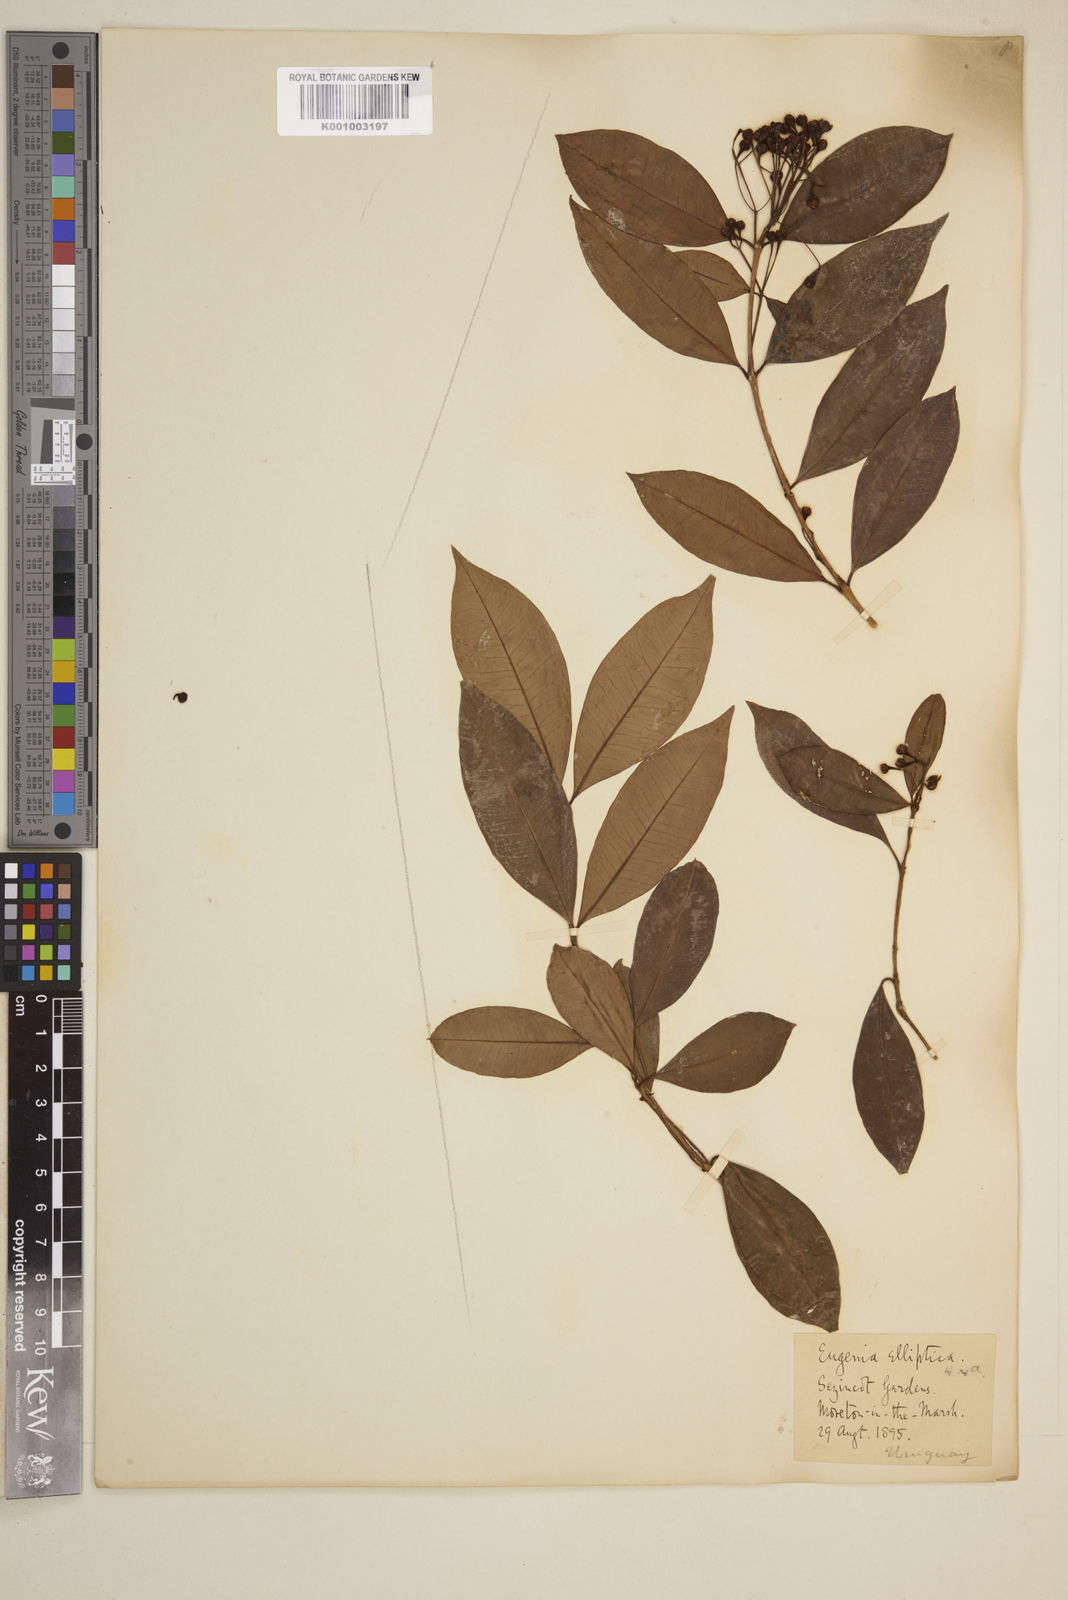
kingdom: Plantae
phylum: Tracheophyta
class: Magnoliopsida
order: Myrtales
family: Myrtaceae
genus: Eugenia
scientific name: Eugenia elliptica
